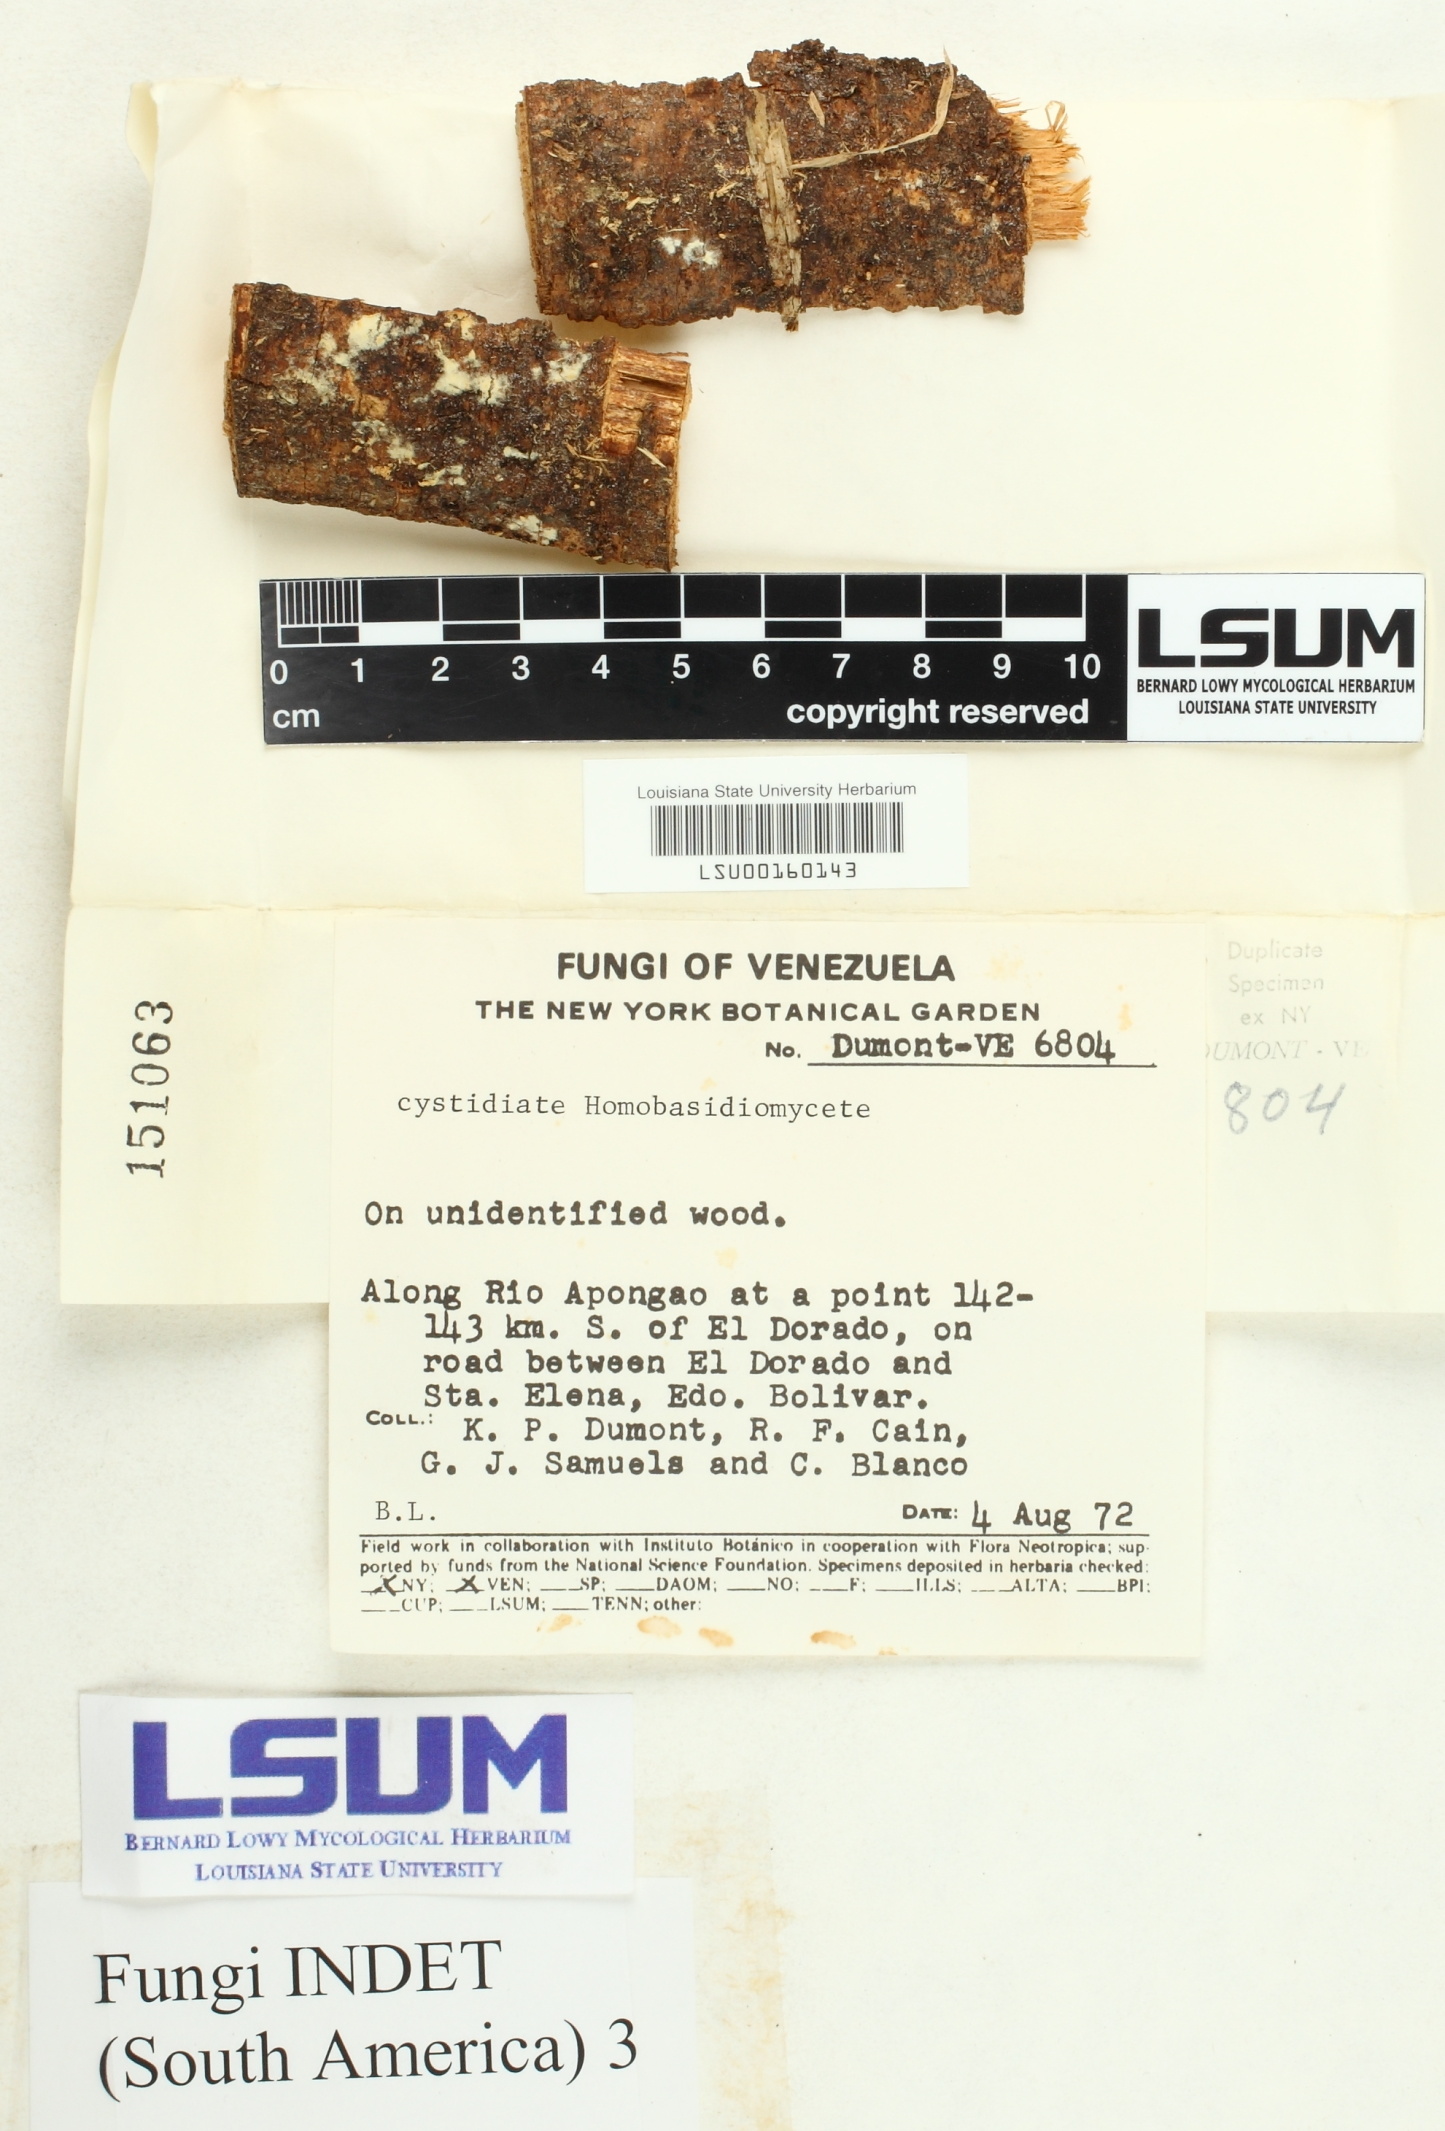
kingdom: Fungi
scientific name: Fungi
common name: Fungi
